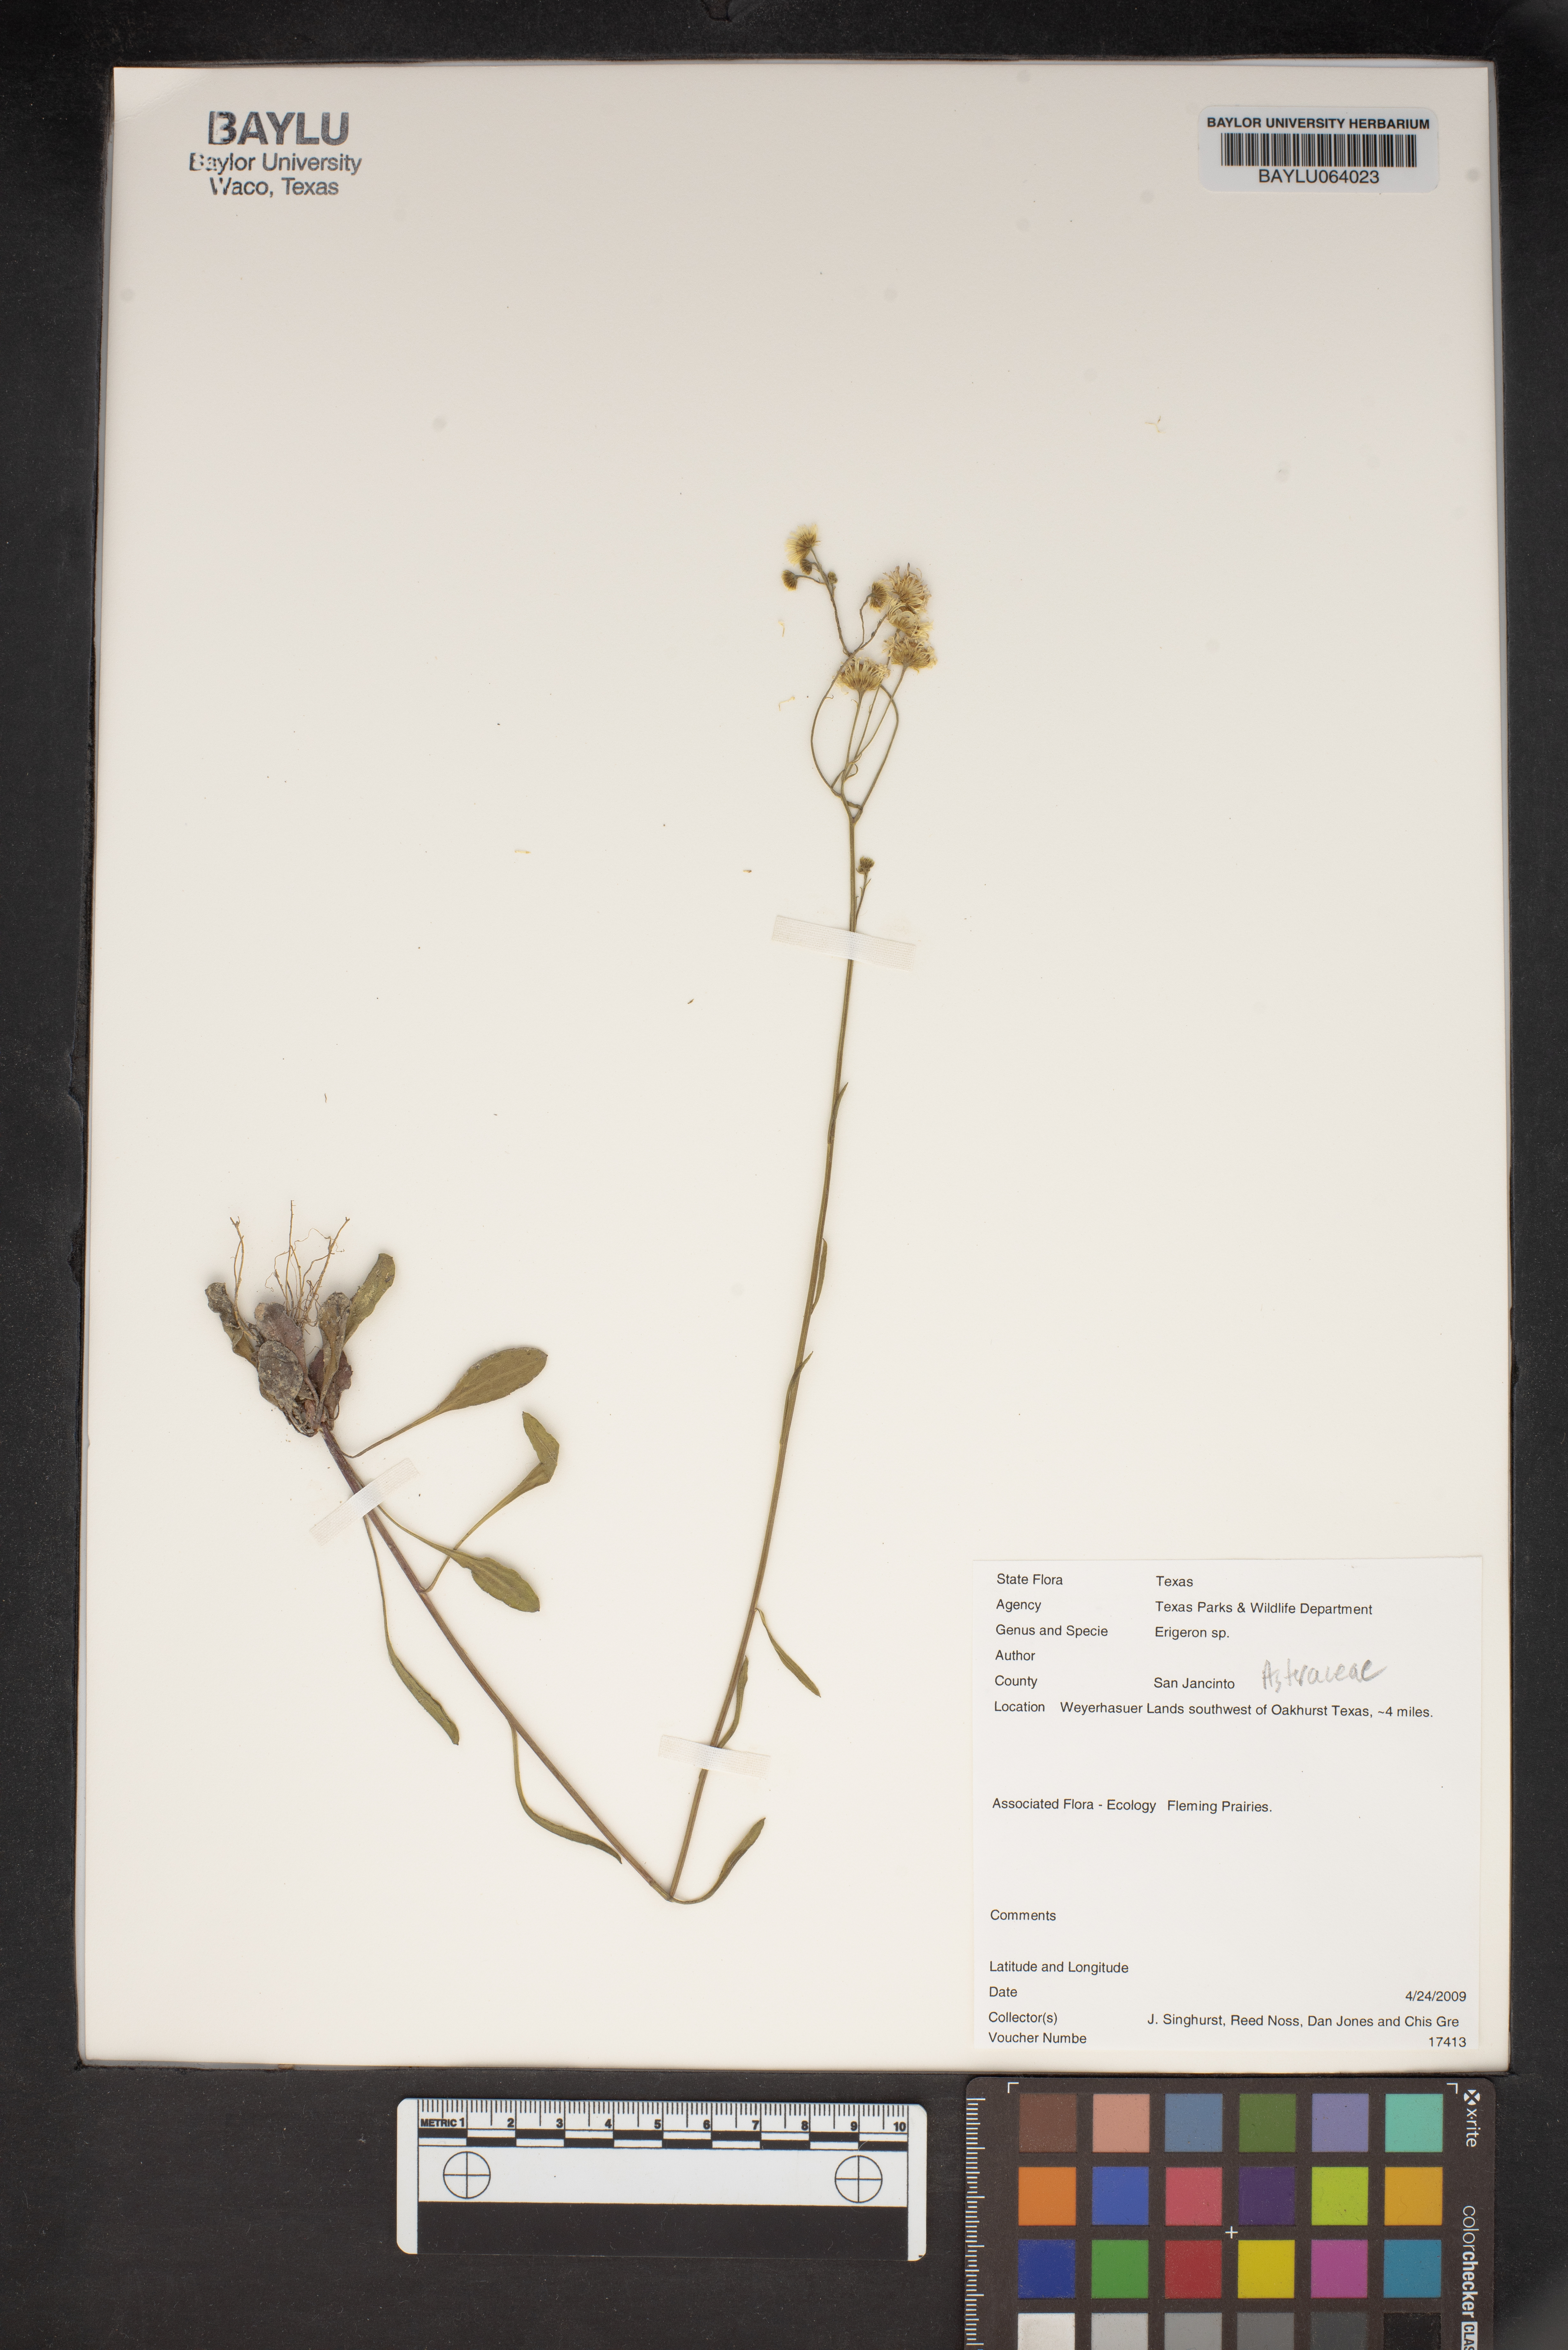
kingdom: Plantae
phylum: Tracheophyta
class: Magnoliopsida
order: Asterales
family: Asteraceae
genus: Erigeron
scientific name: Erigeron
